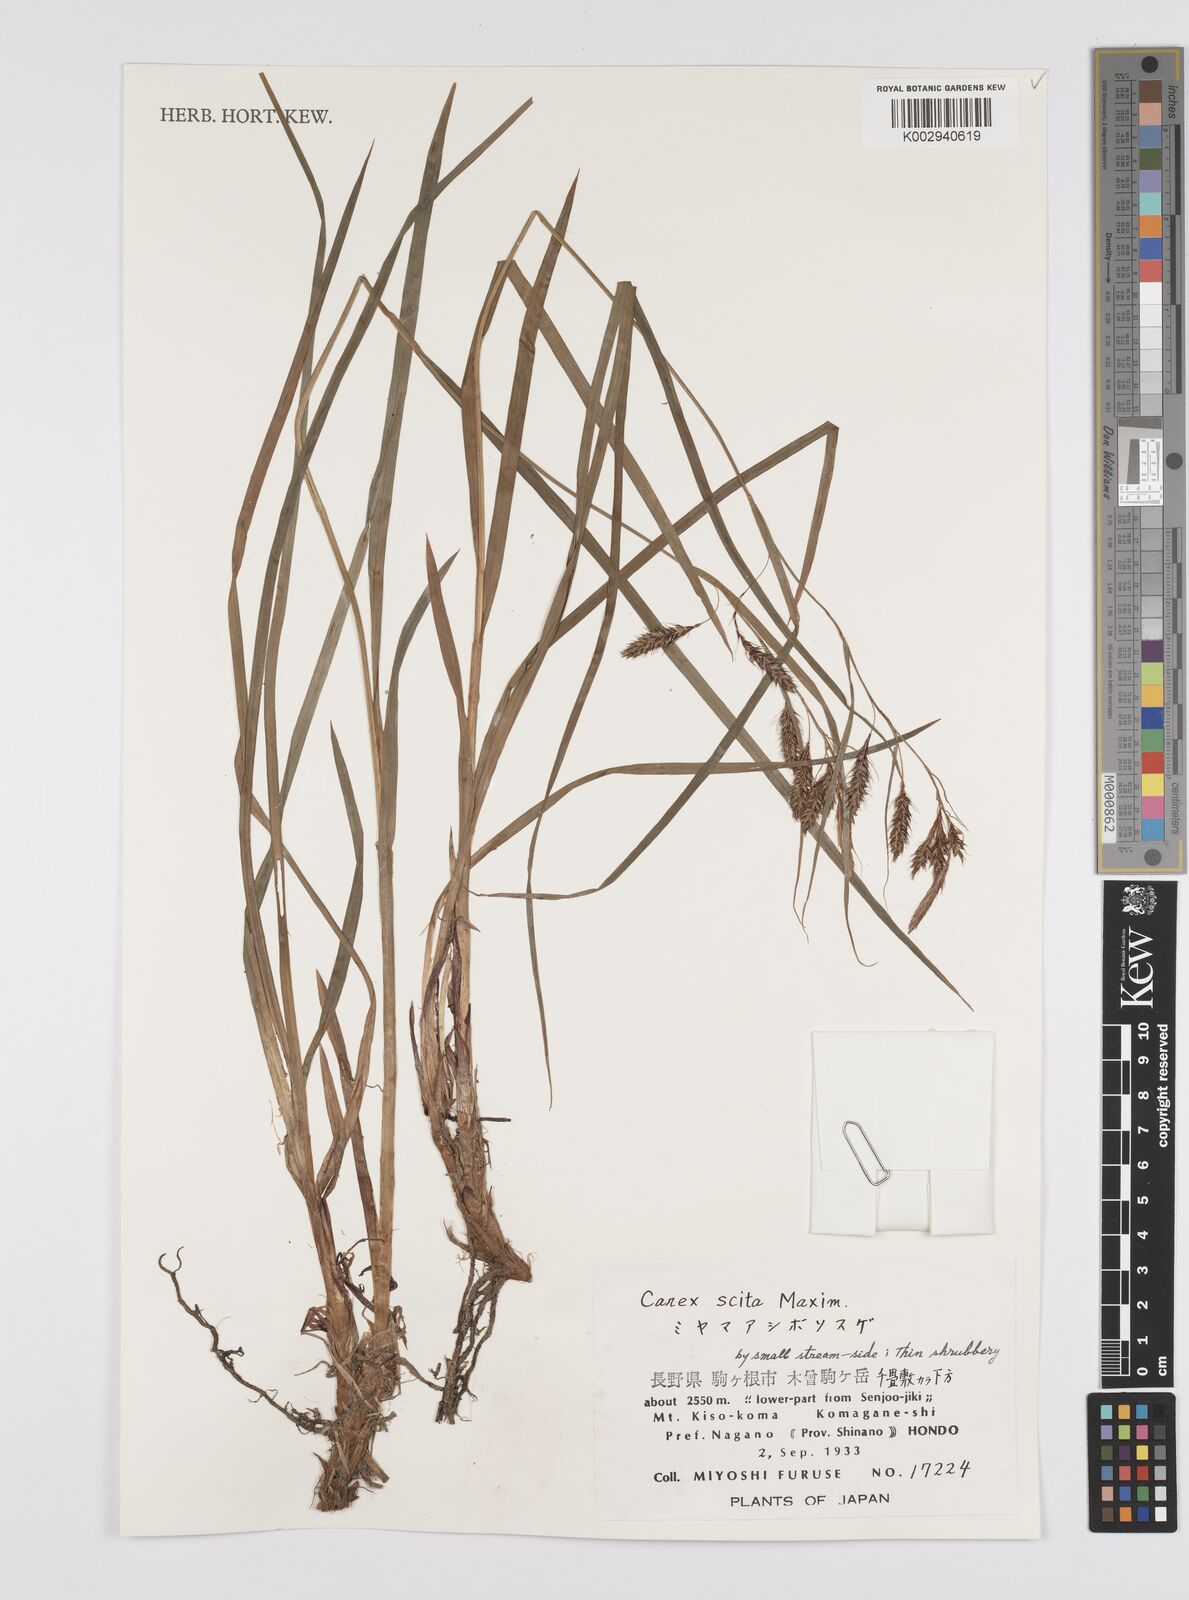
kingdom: Plantae
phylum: Tracheophyta
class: Liliopsida
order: Poales
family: Cyperaceae
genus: Carex
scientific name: Carex scita
